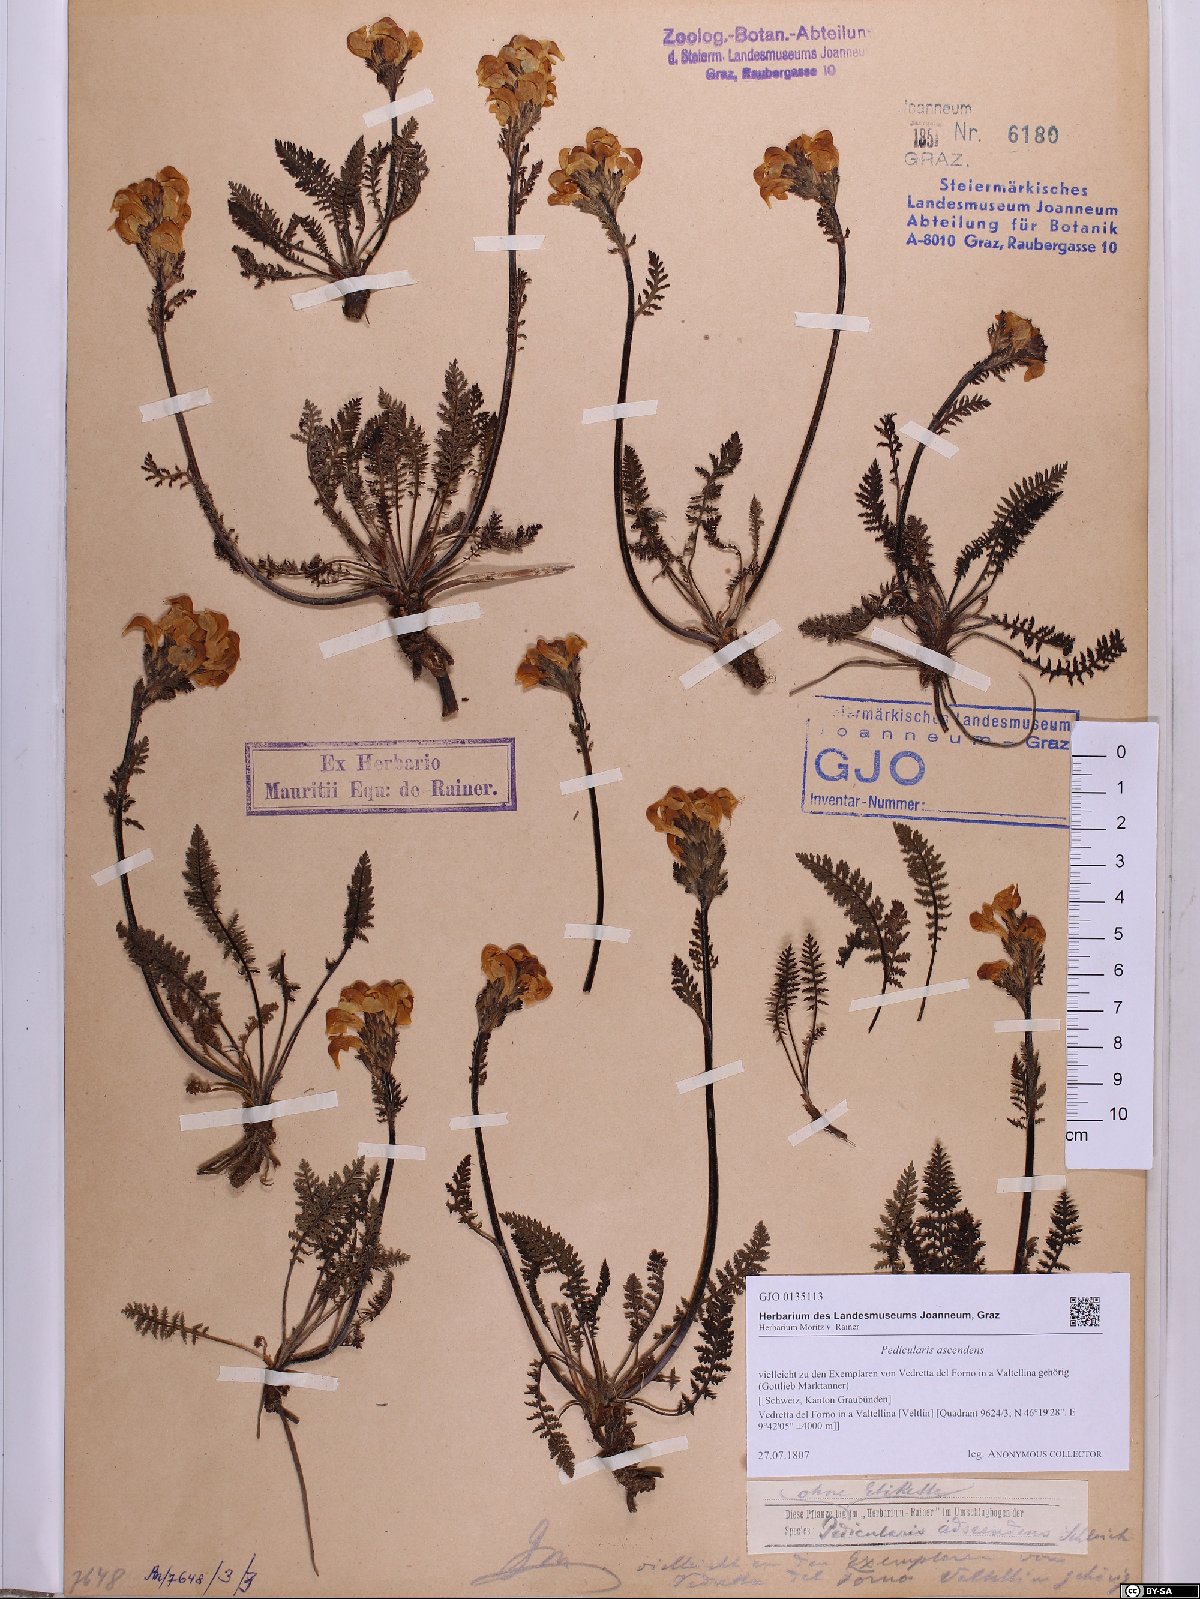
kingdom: Plantae
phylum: Tracheophyta
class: Magnoliopsida
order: Lamiales
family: Orobanchaceae
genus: Pedicularis
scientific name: Pedicularis ascendens
